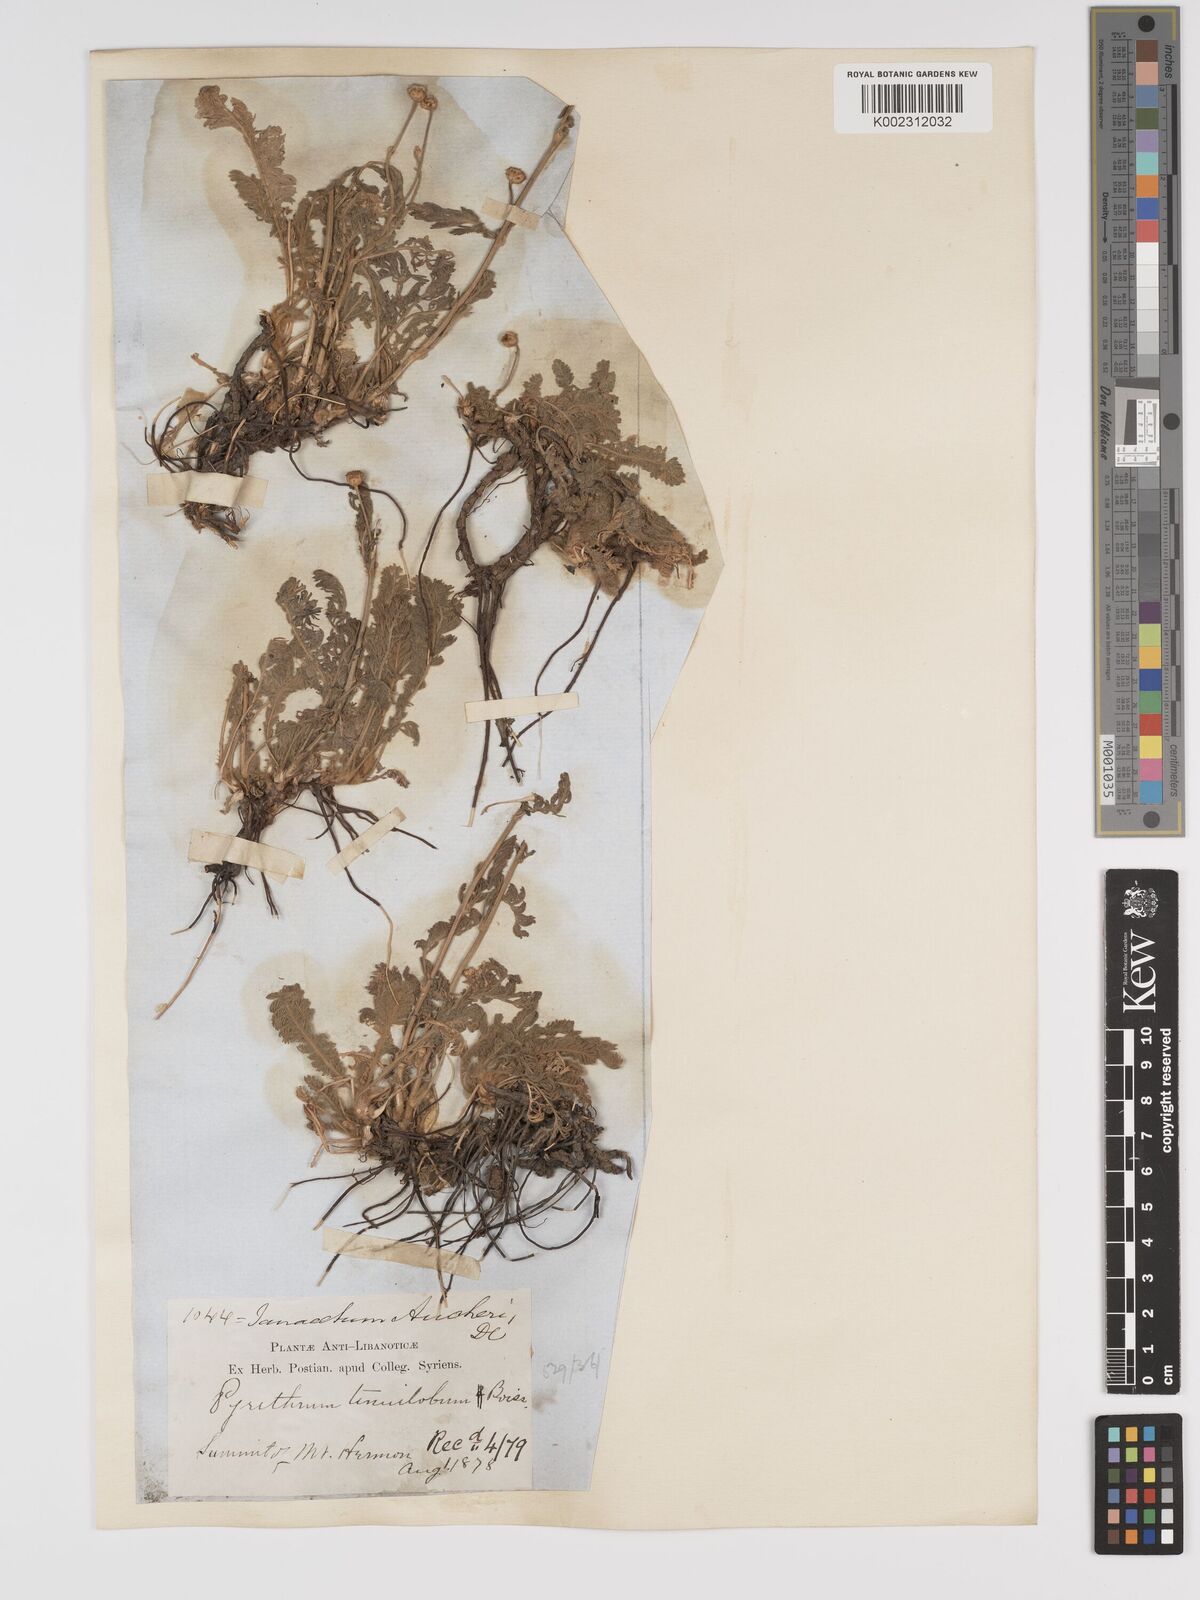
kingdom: Plantae
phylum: Tracheophyta
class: Magnoliopsida
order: Asterales
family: Asteraceae
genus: Tanacetum
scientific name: Tanacetum aucheri
